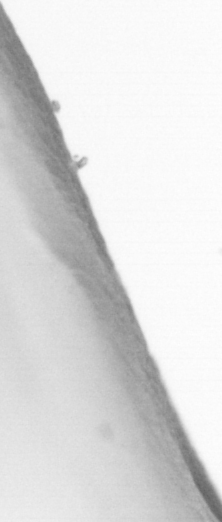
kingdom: Animalia
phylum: Chordata
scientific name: Chordata
